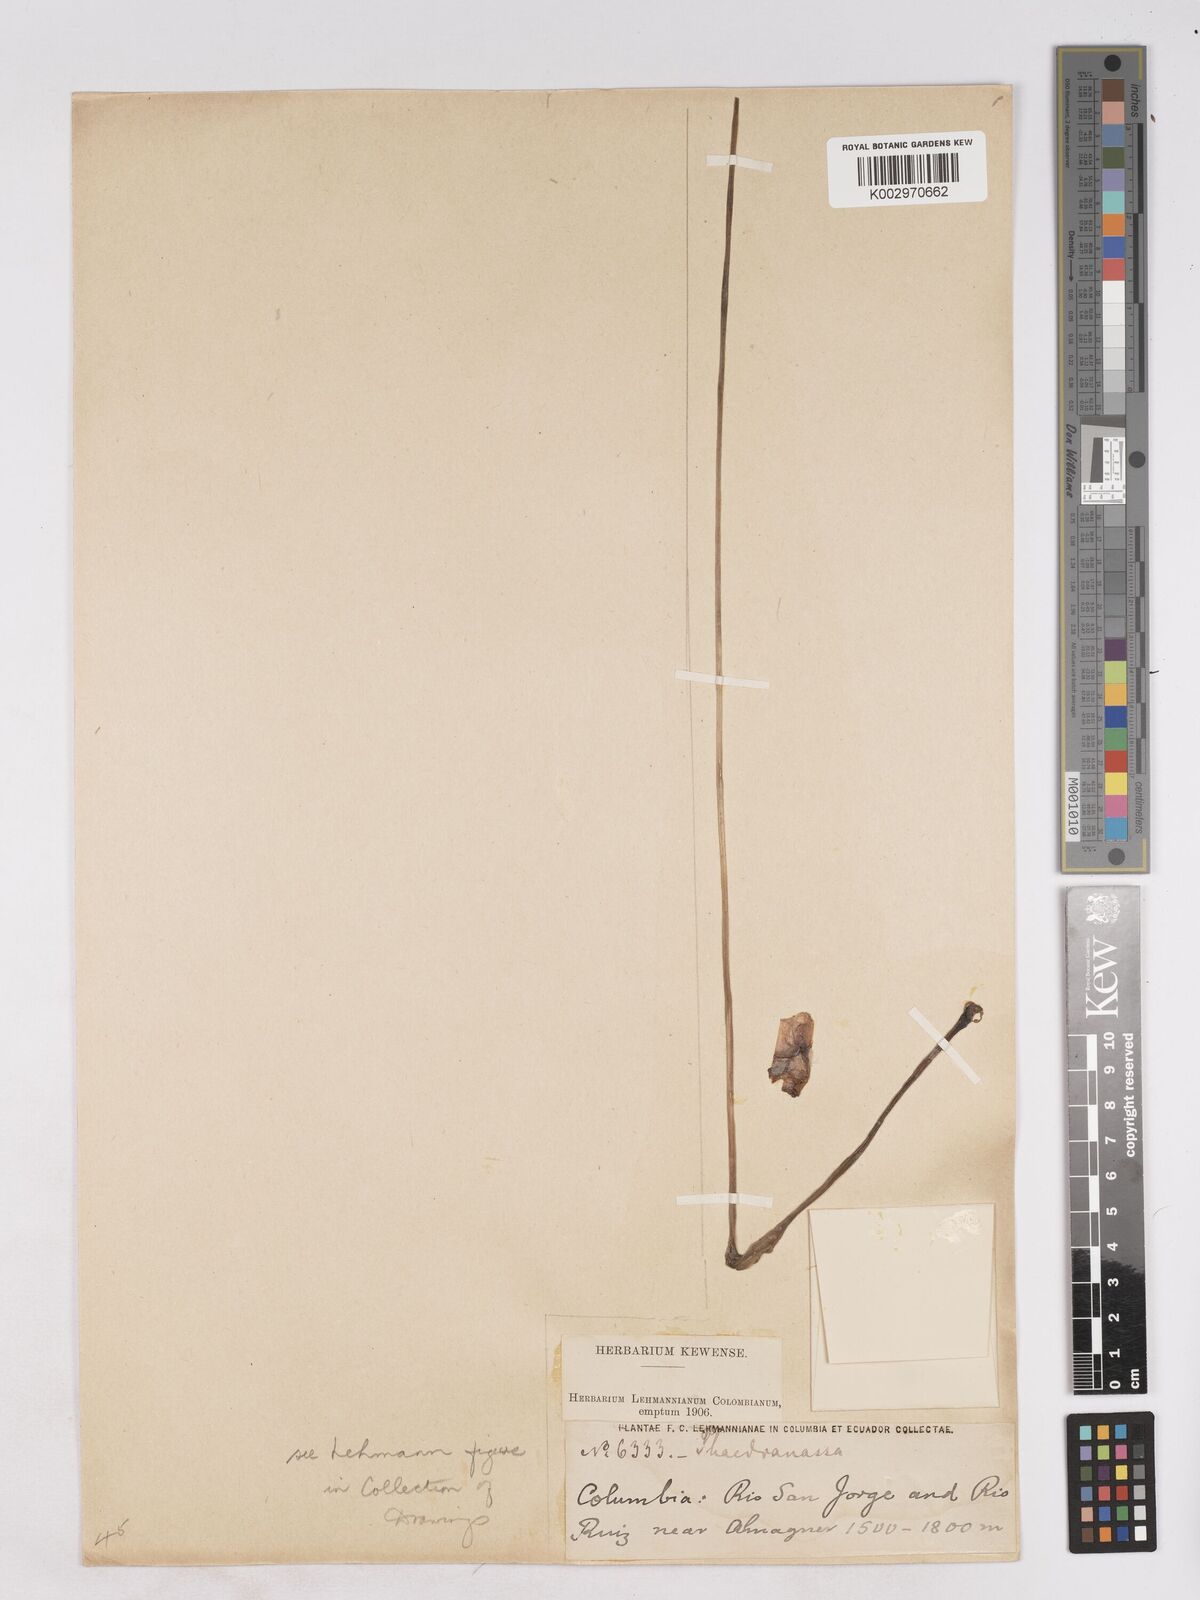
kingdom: Plantae
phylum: Tracheophyta
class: Liliopsida
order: Asparagales
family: Amaryllidaceae
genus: Phaedranassa
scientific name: Phaedranassa lehmannii
